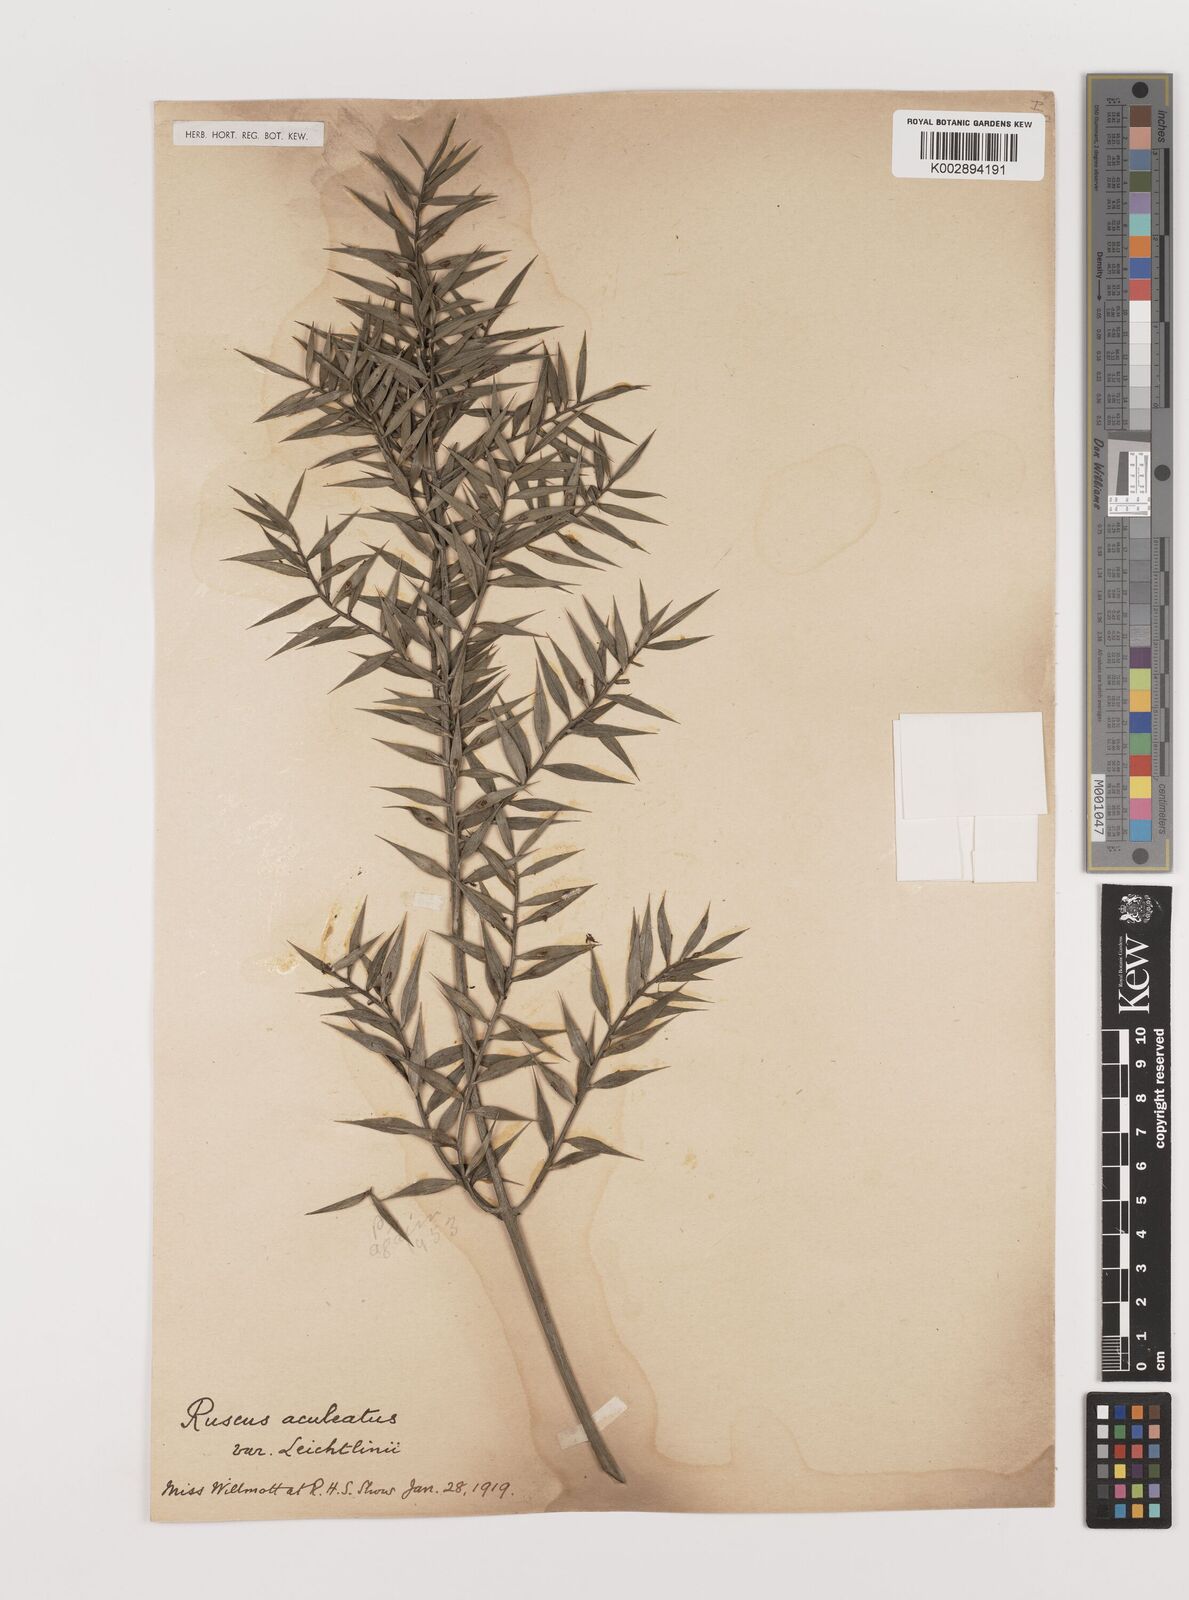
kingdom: Plantae
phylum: Tracheophyta
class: Liliopsida
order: Asparagales
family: Asparagaceae
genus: Ruscus
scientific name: Ruscus aculeatus
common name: Butcher's-broom
